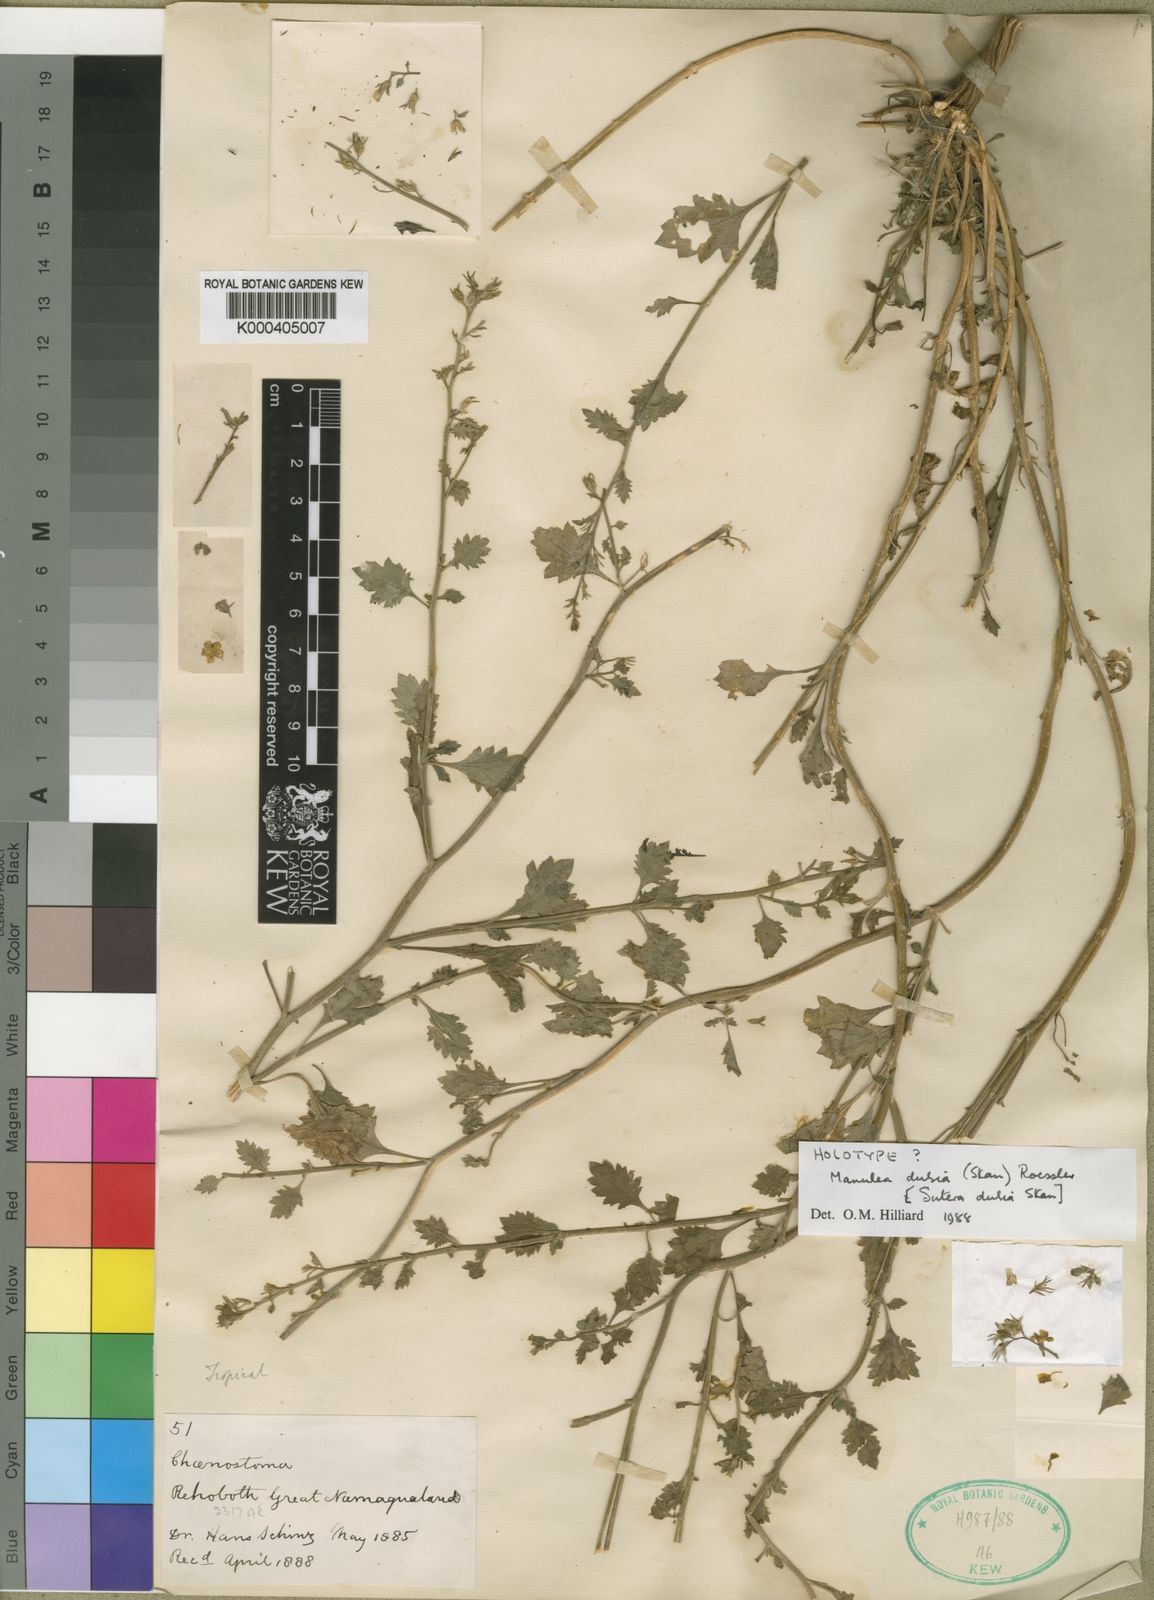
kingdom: Plantae
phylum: Tracheophyta
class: Magnoliopsida
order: Lamiales
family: Scrophulariaceae
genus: Manulea
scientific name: Manulea dubia
